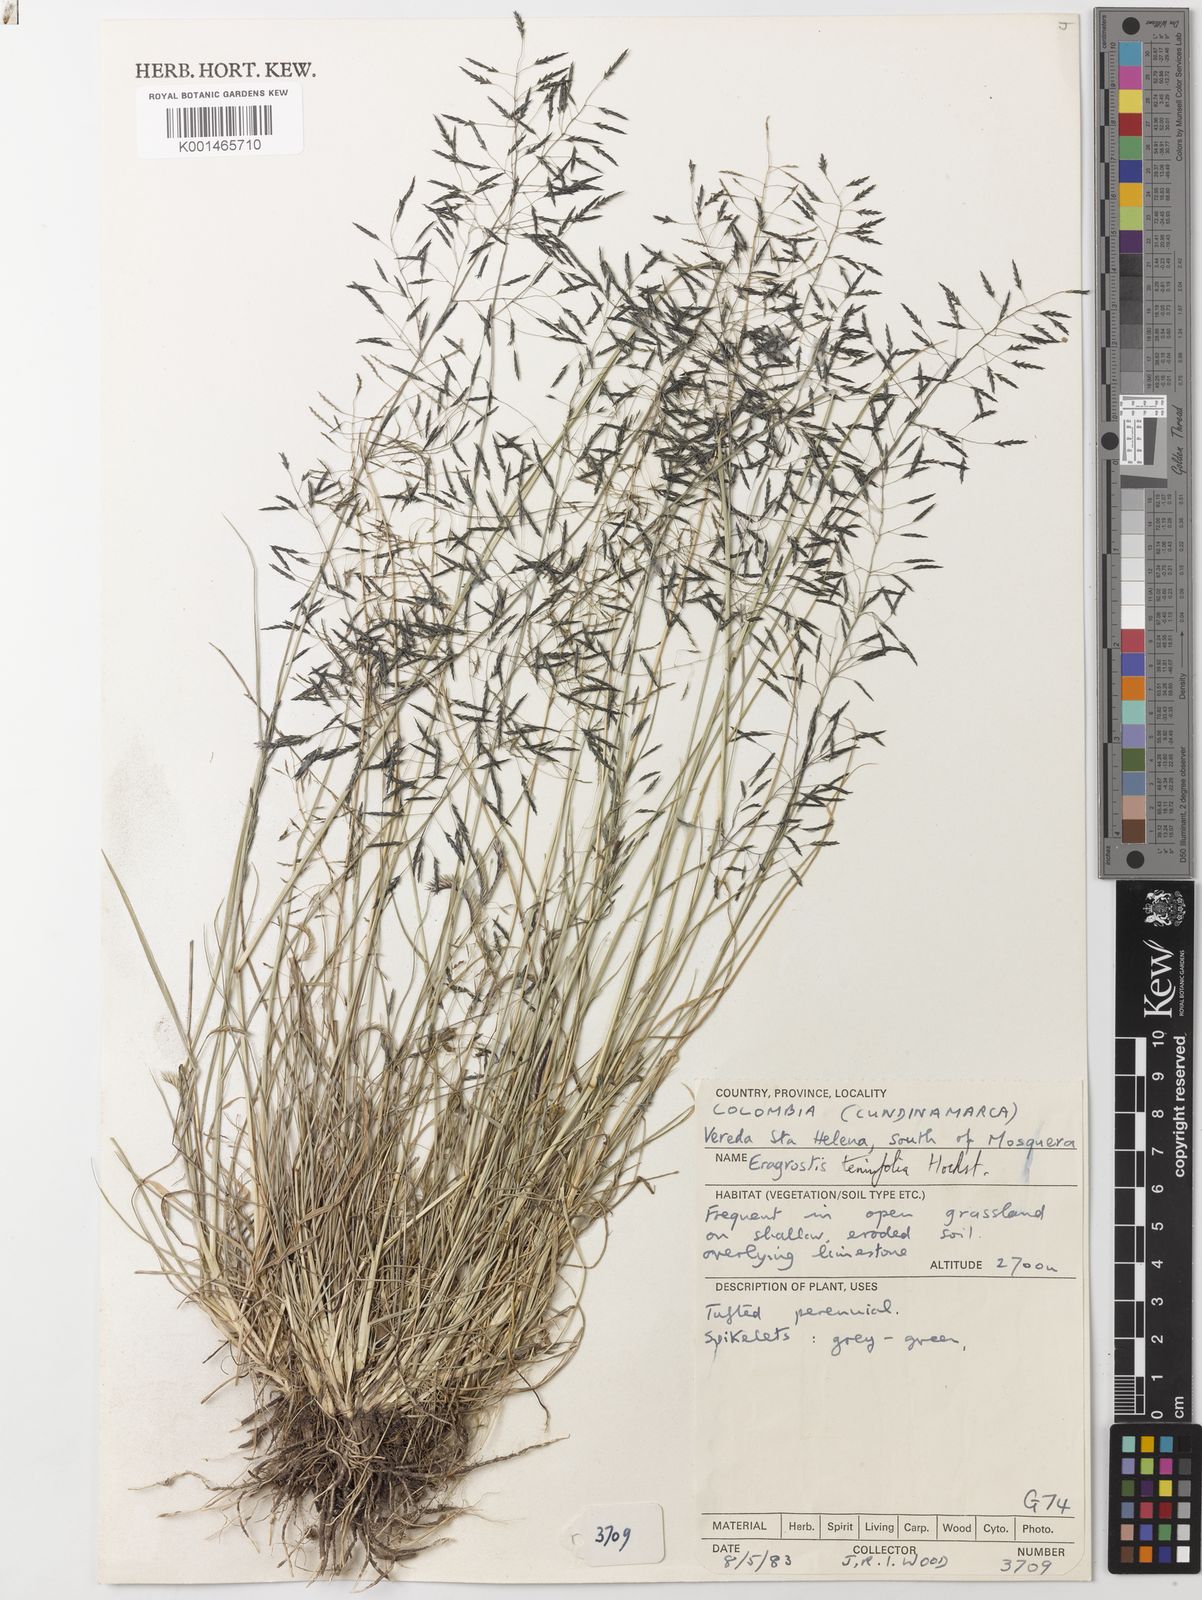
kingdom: Plantae
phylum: Tracheophyta
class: Liliopsida
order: Poales
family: Poaceae
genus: Eragrostis
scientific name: Eragrostis
